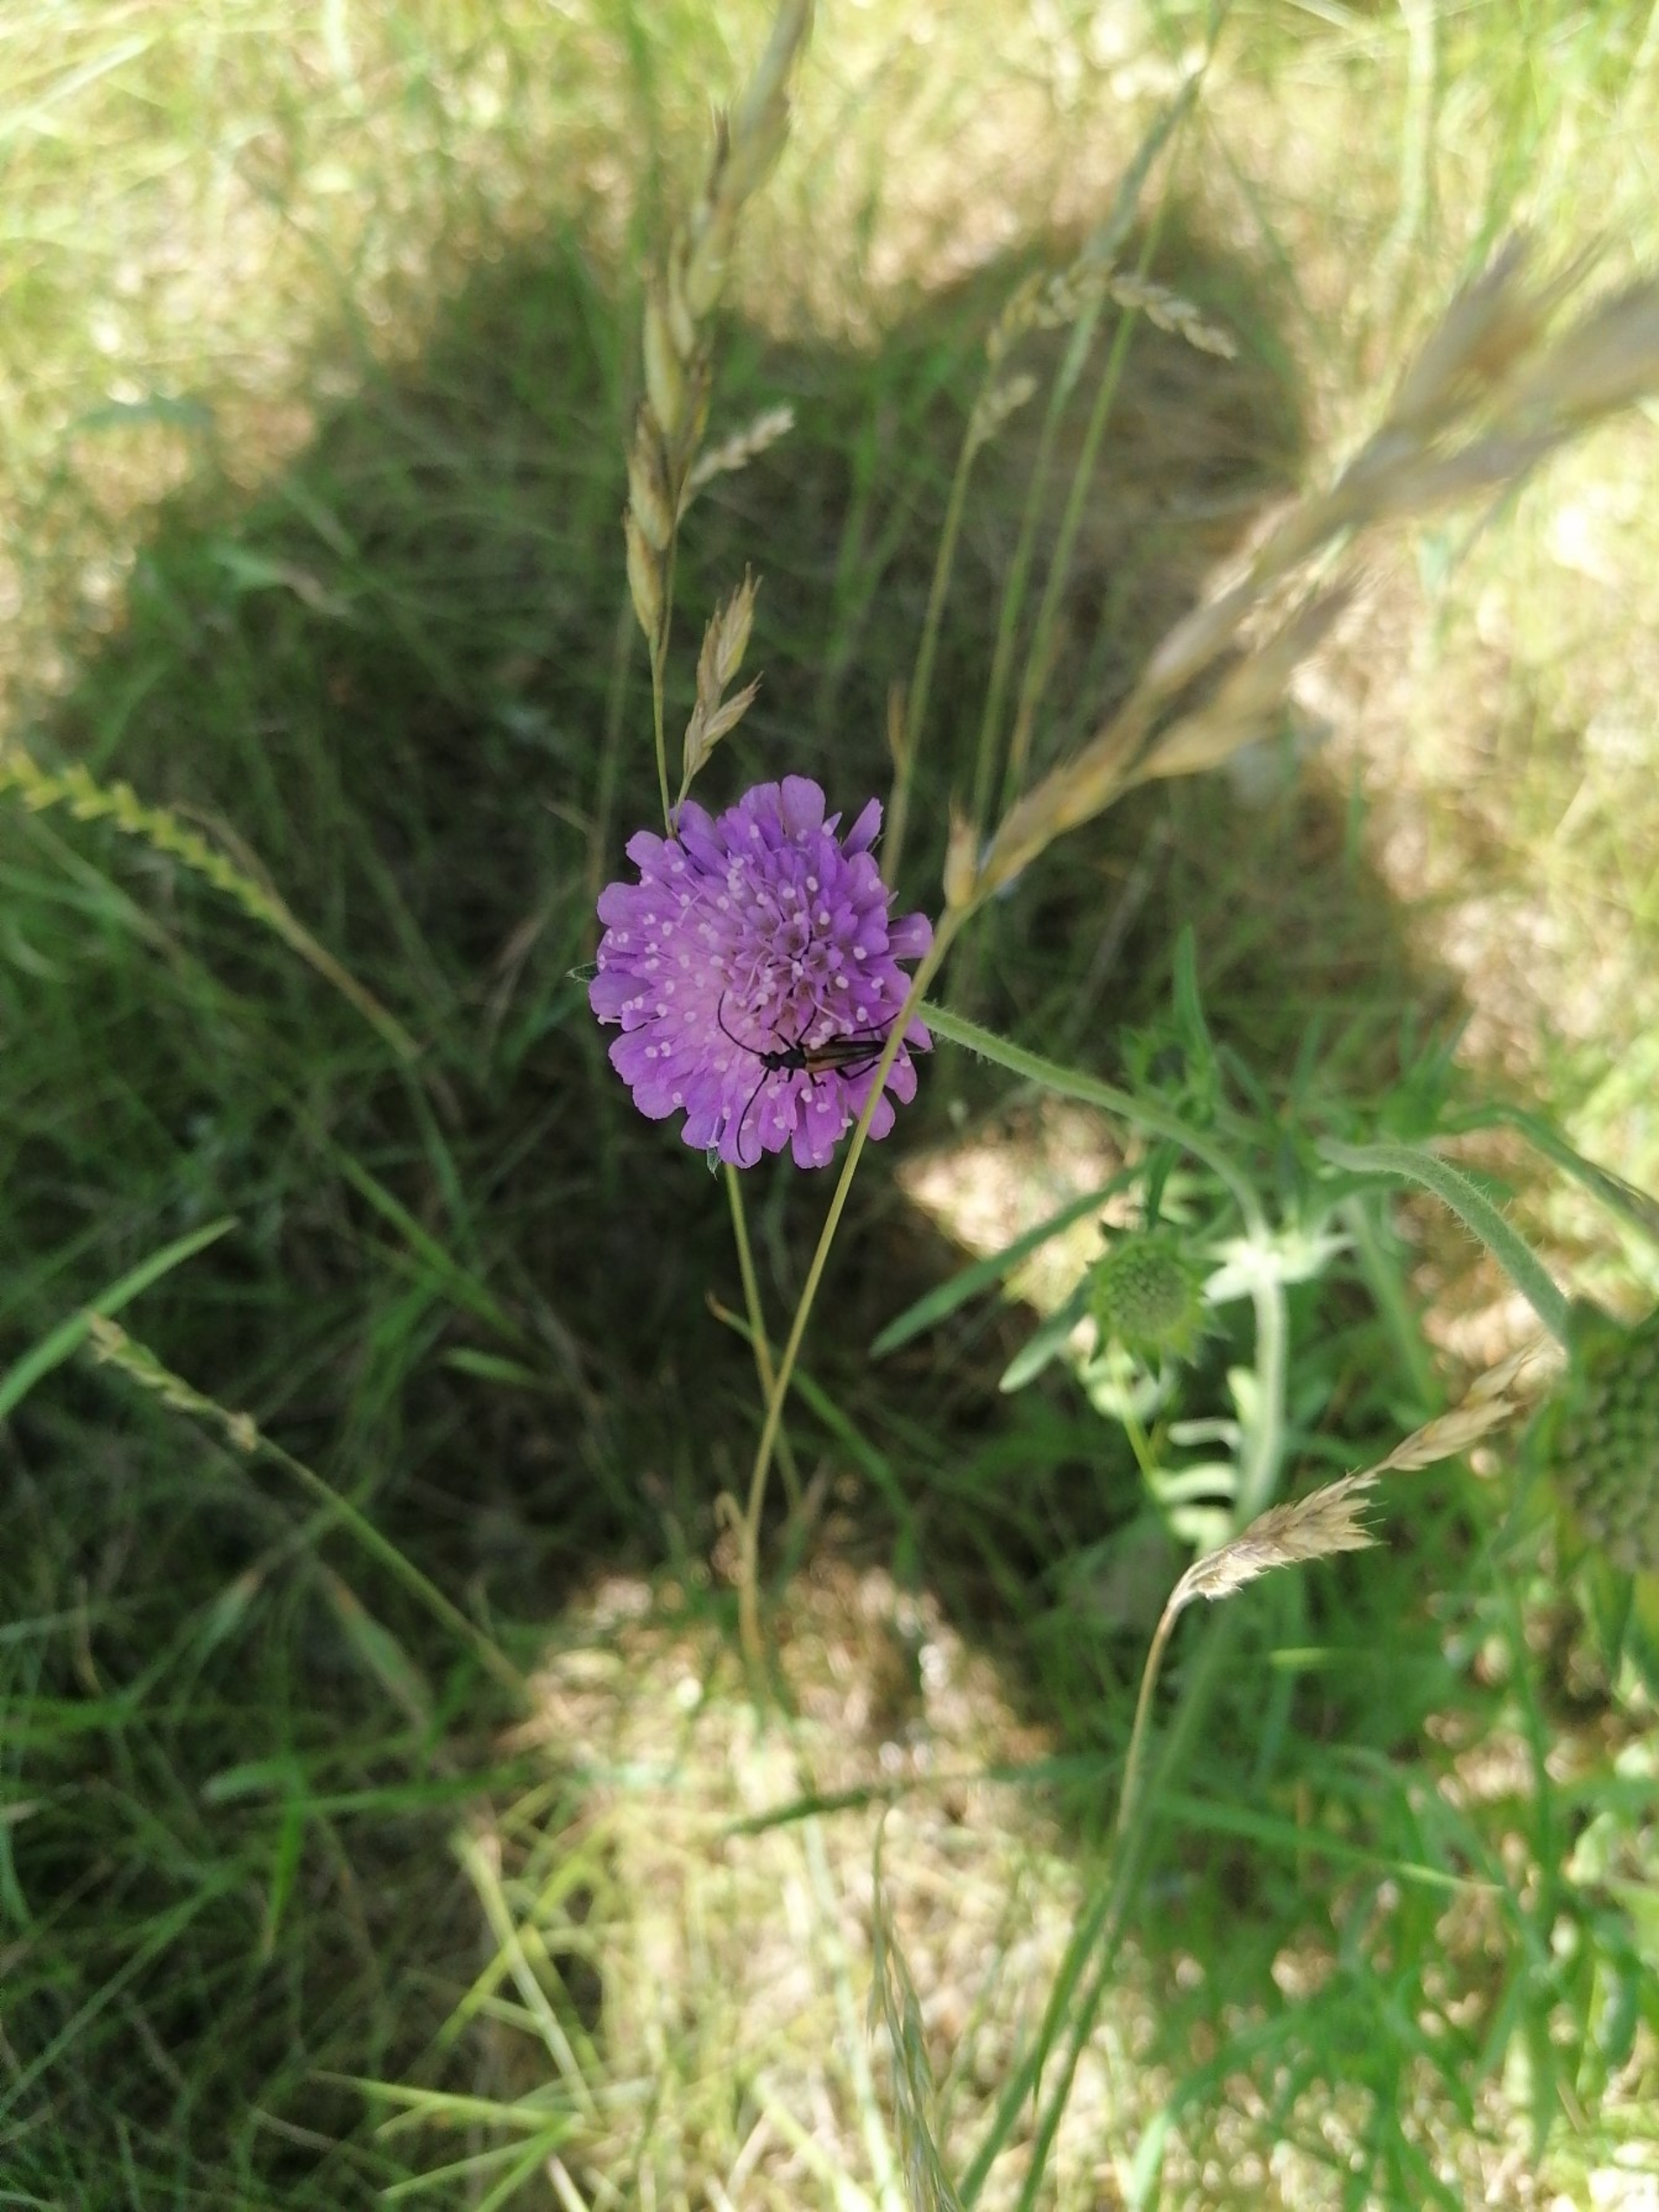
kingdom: Animalia
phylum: Arthropoda
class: Insecta
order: Coleoptera
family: Cerambycidae
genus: Stenurella
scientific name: Stenurella melanura
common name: Sortsømmet blomsterbuk
